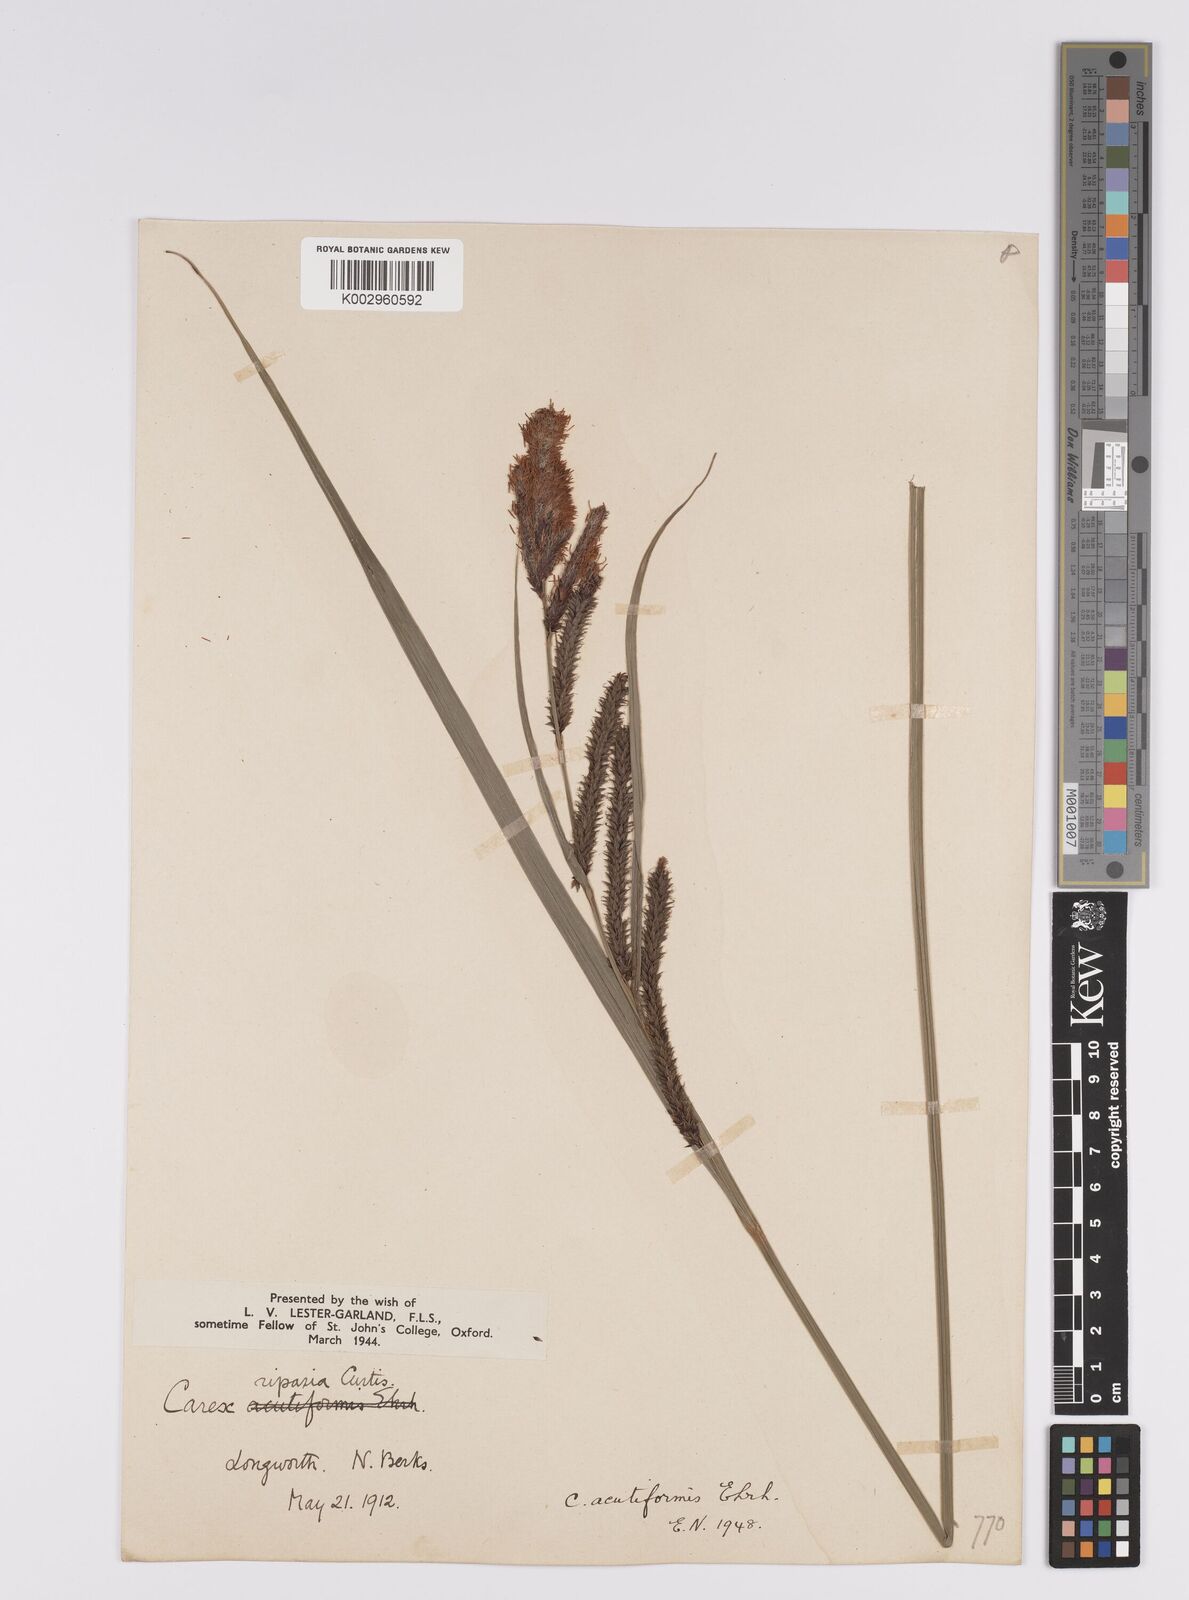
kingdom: Plantae
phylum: Tracheophyta
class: Liliopsida
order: Poales
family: Cyperaceae
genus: Carex
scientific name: Carex acutiformis
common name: Lesser pond-sedge
